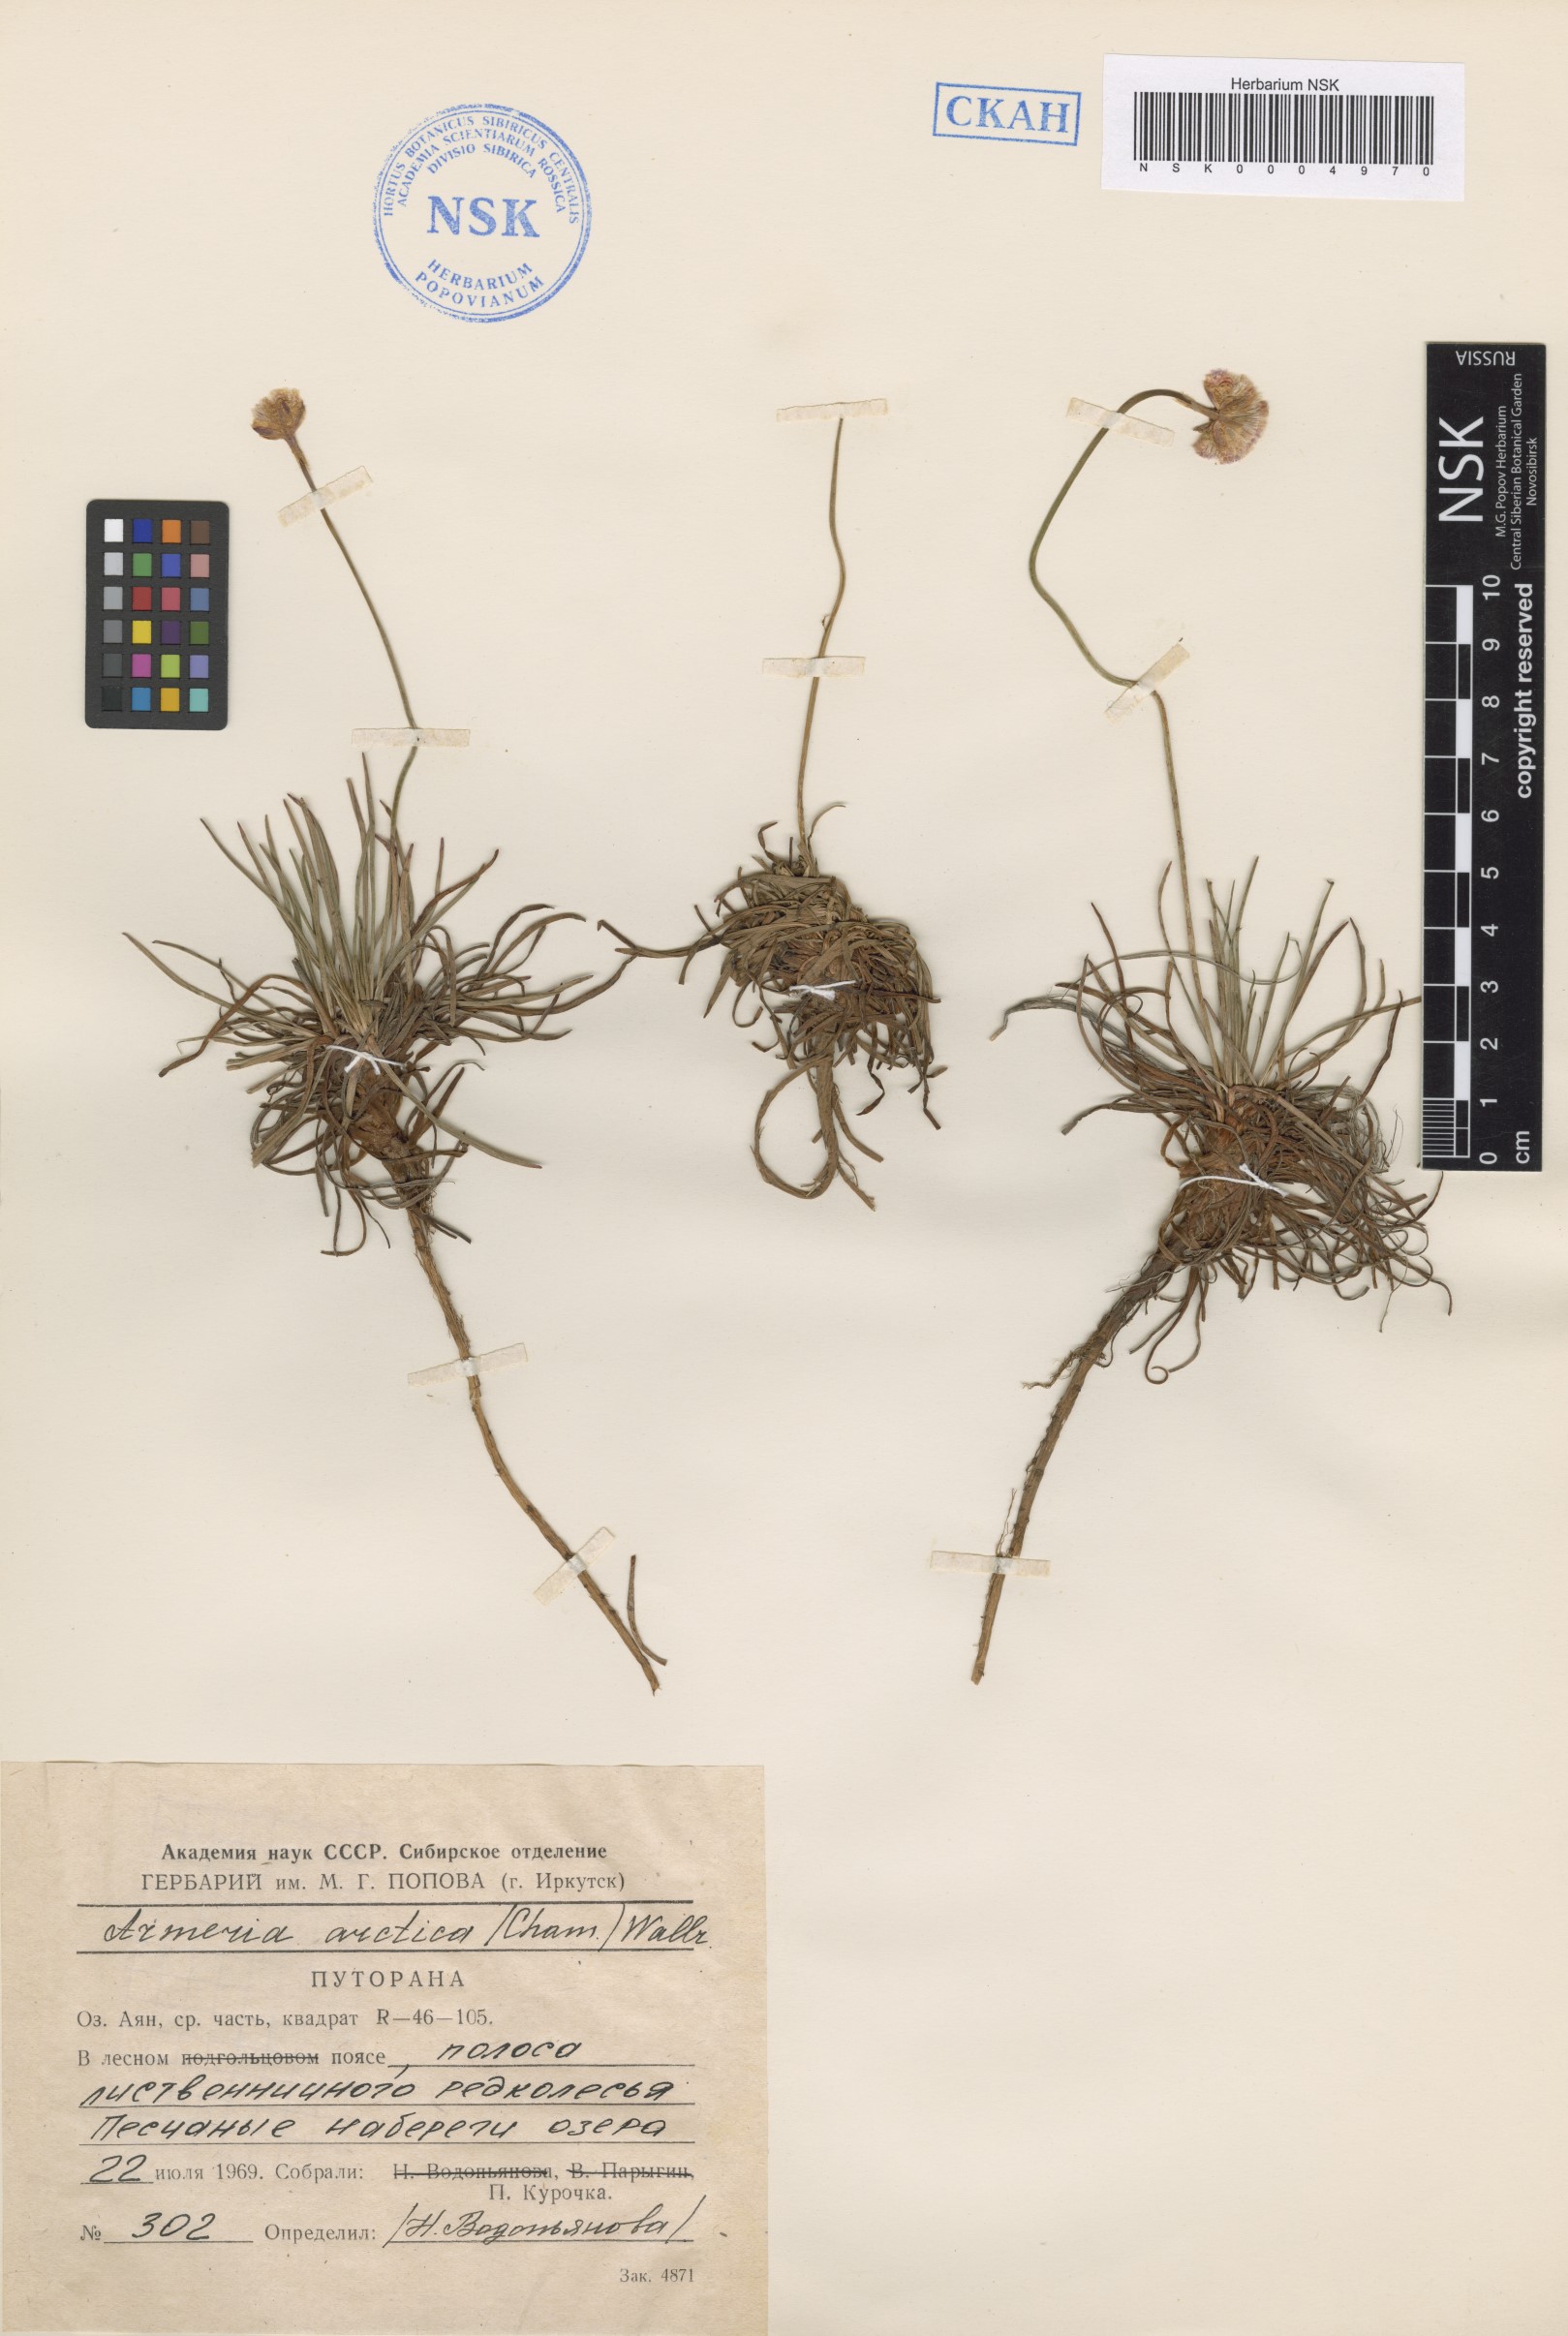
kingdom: Plantae
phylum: Tracheophyta
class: Magnoliopsida
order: Caryophyllales
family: Plumbaginaceae
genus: Armeria
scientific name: Armeria maritima
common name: Thrift
